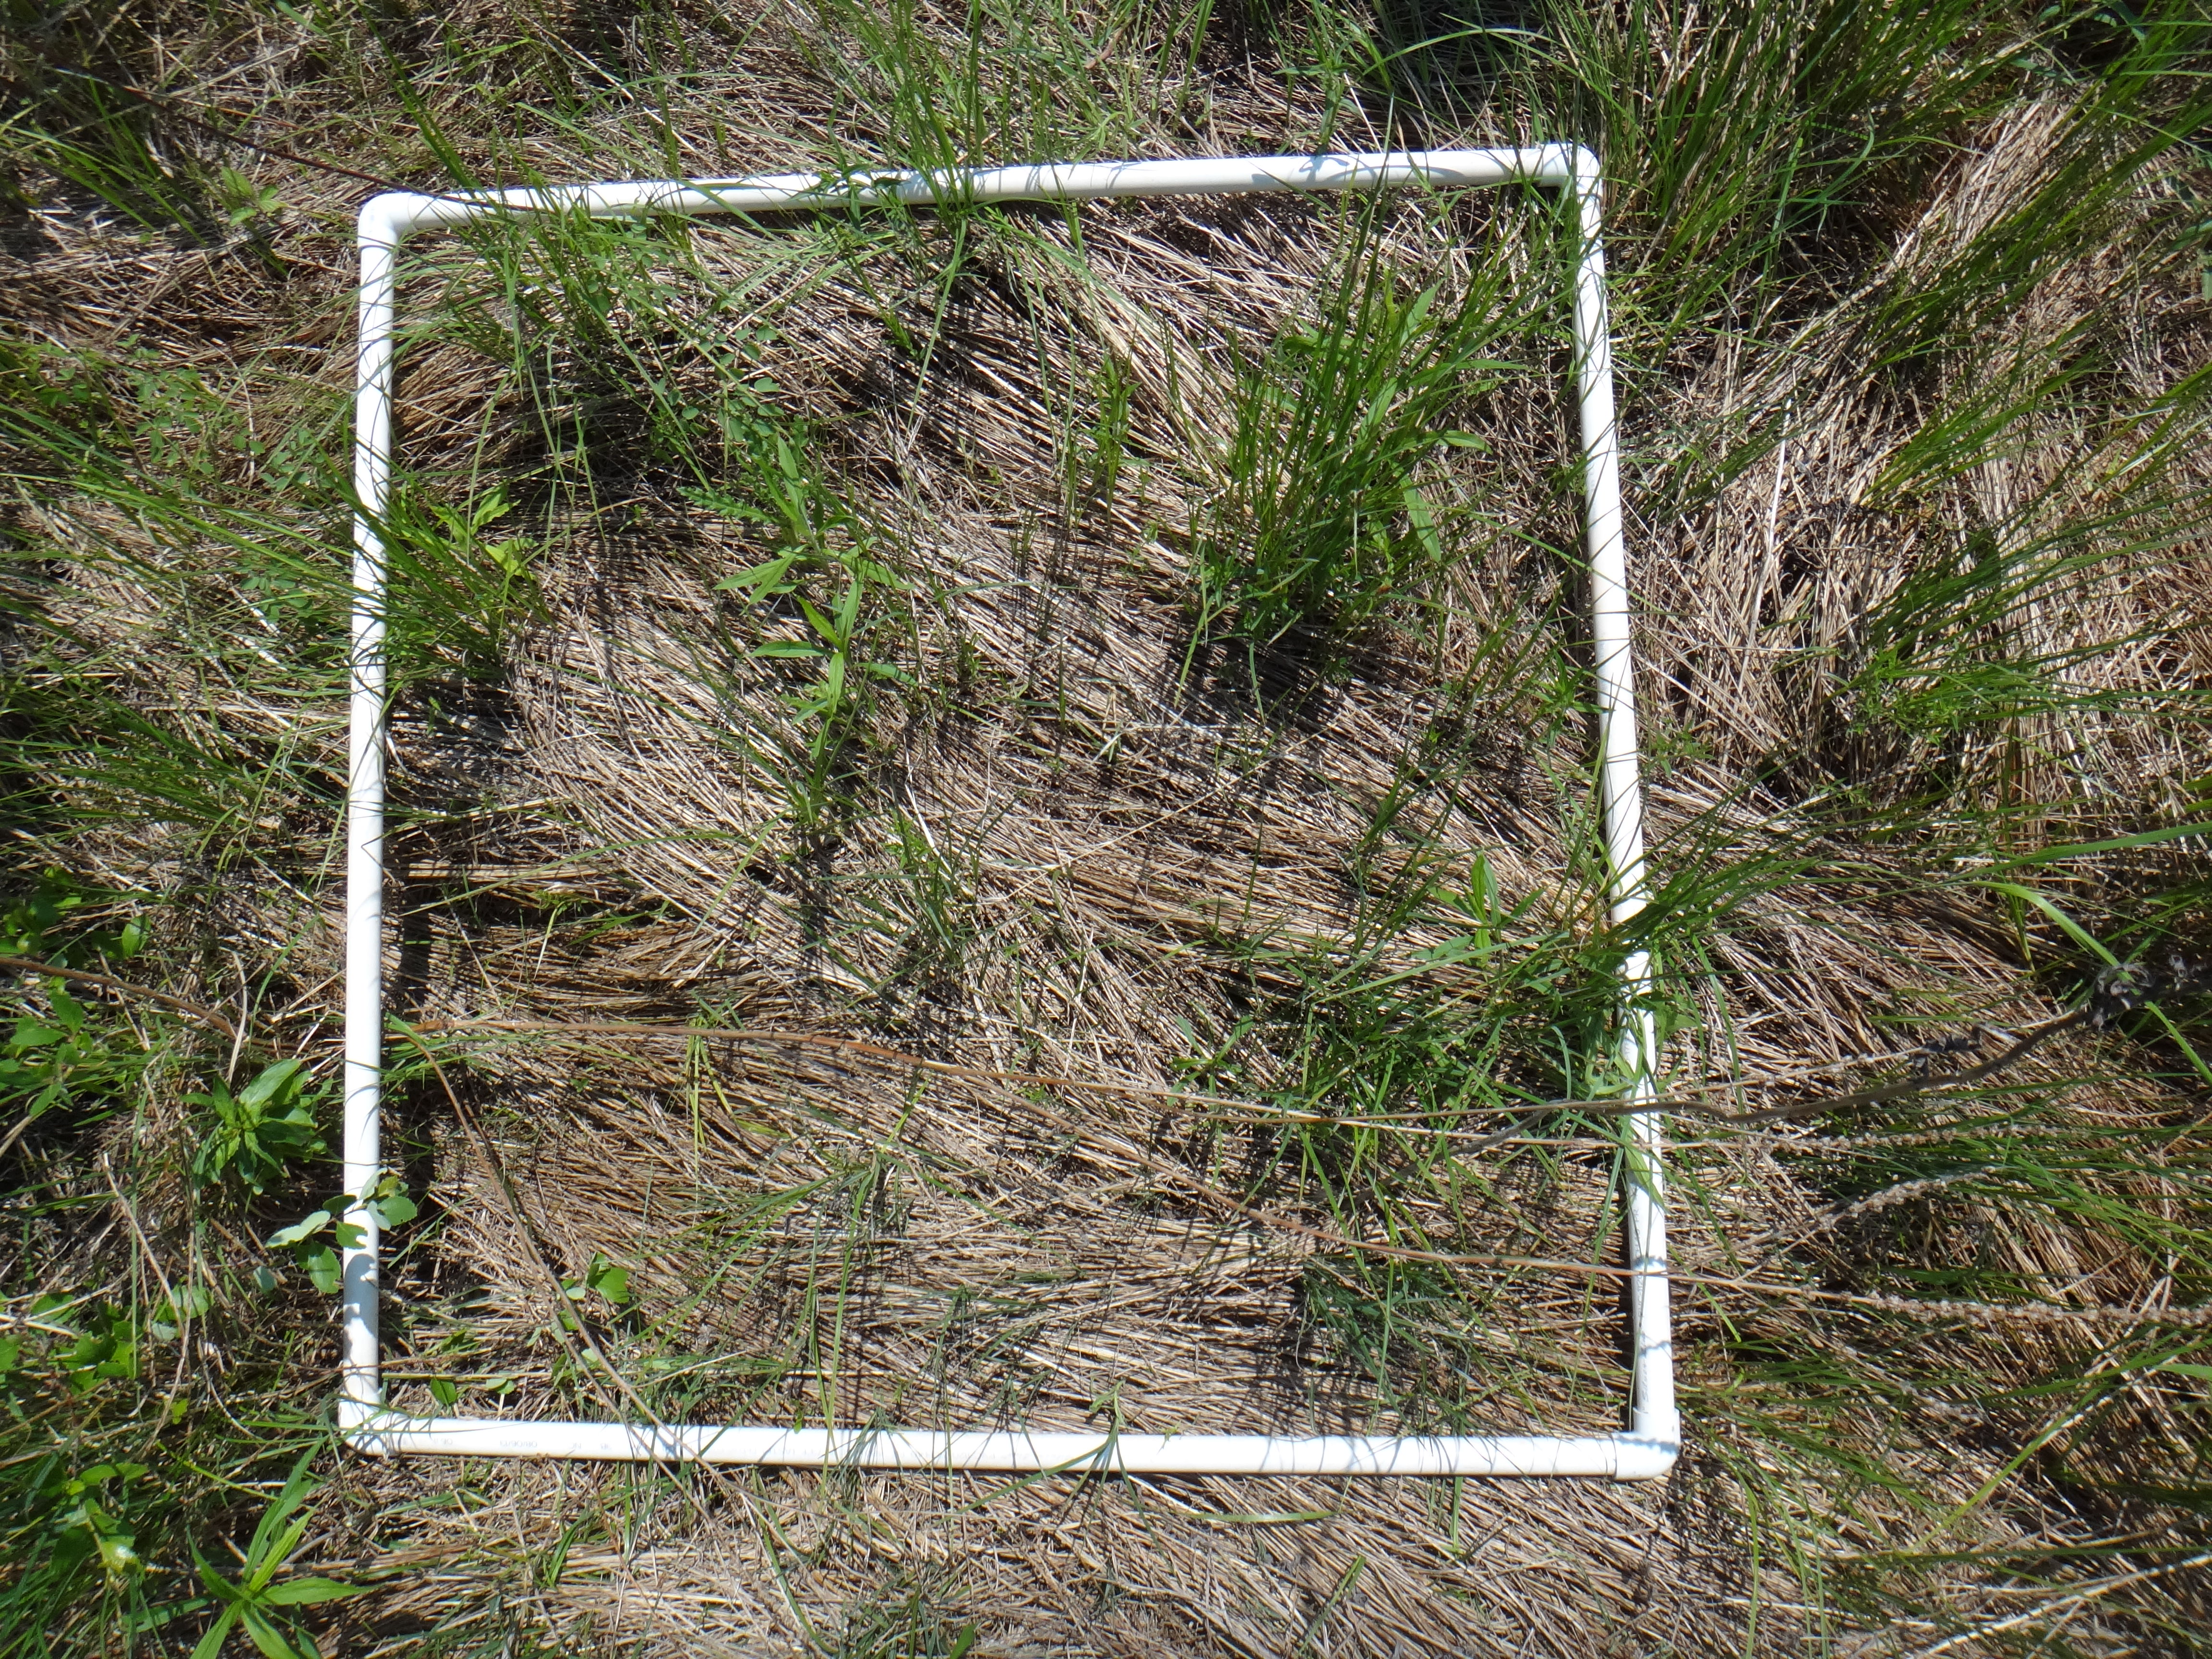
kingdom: Plantae
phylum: Tracheophyta
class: Magnoliopsida
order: Rosales
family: Rhamnaceae
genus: Frangula
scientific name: Frangula alnus
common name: Alder buckthorn
